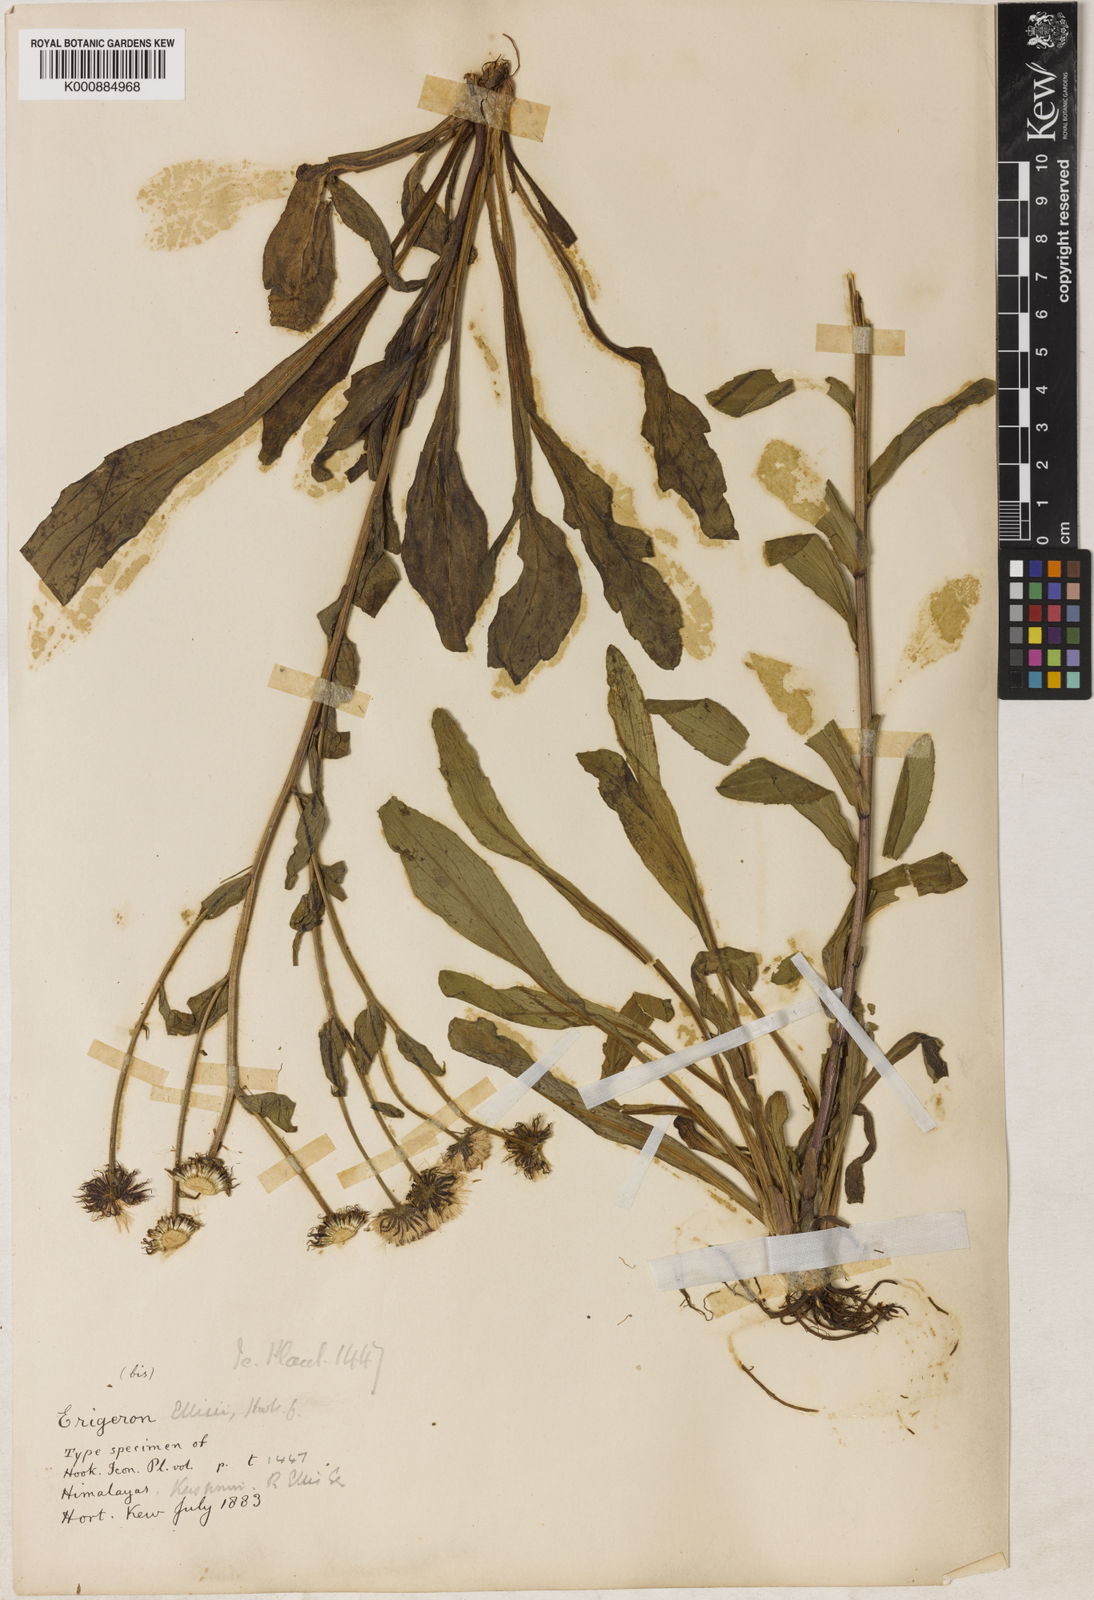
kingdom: Plantae
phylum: Tracheophyta
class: Magnoliopsida
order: Asterales
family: Asteraceae
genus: Erigeron
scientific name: Erigeron semibarbatus
